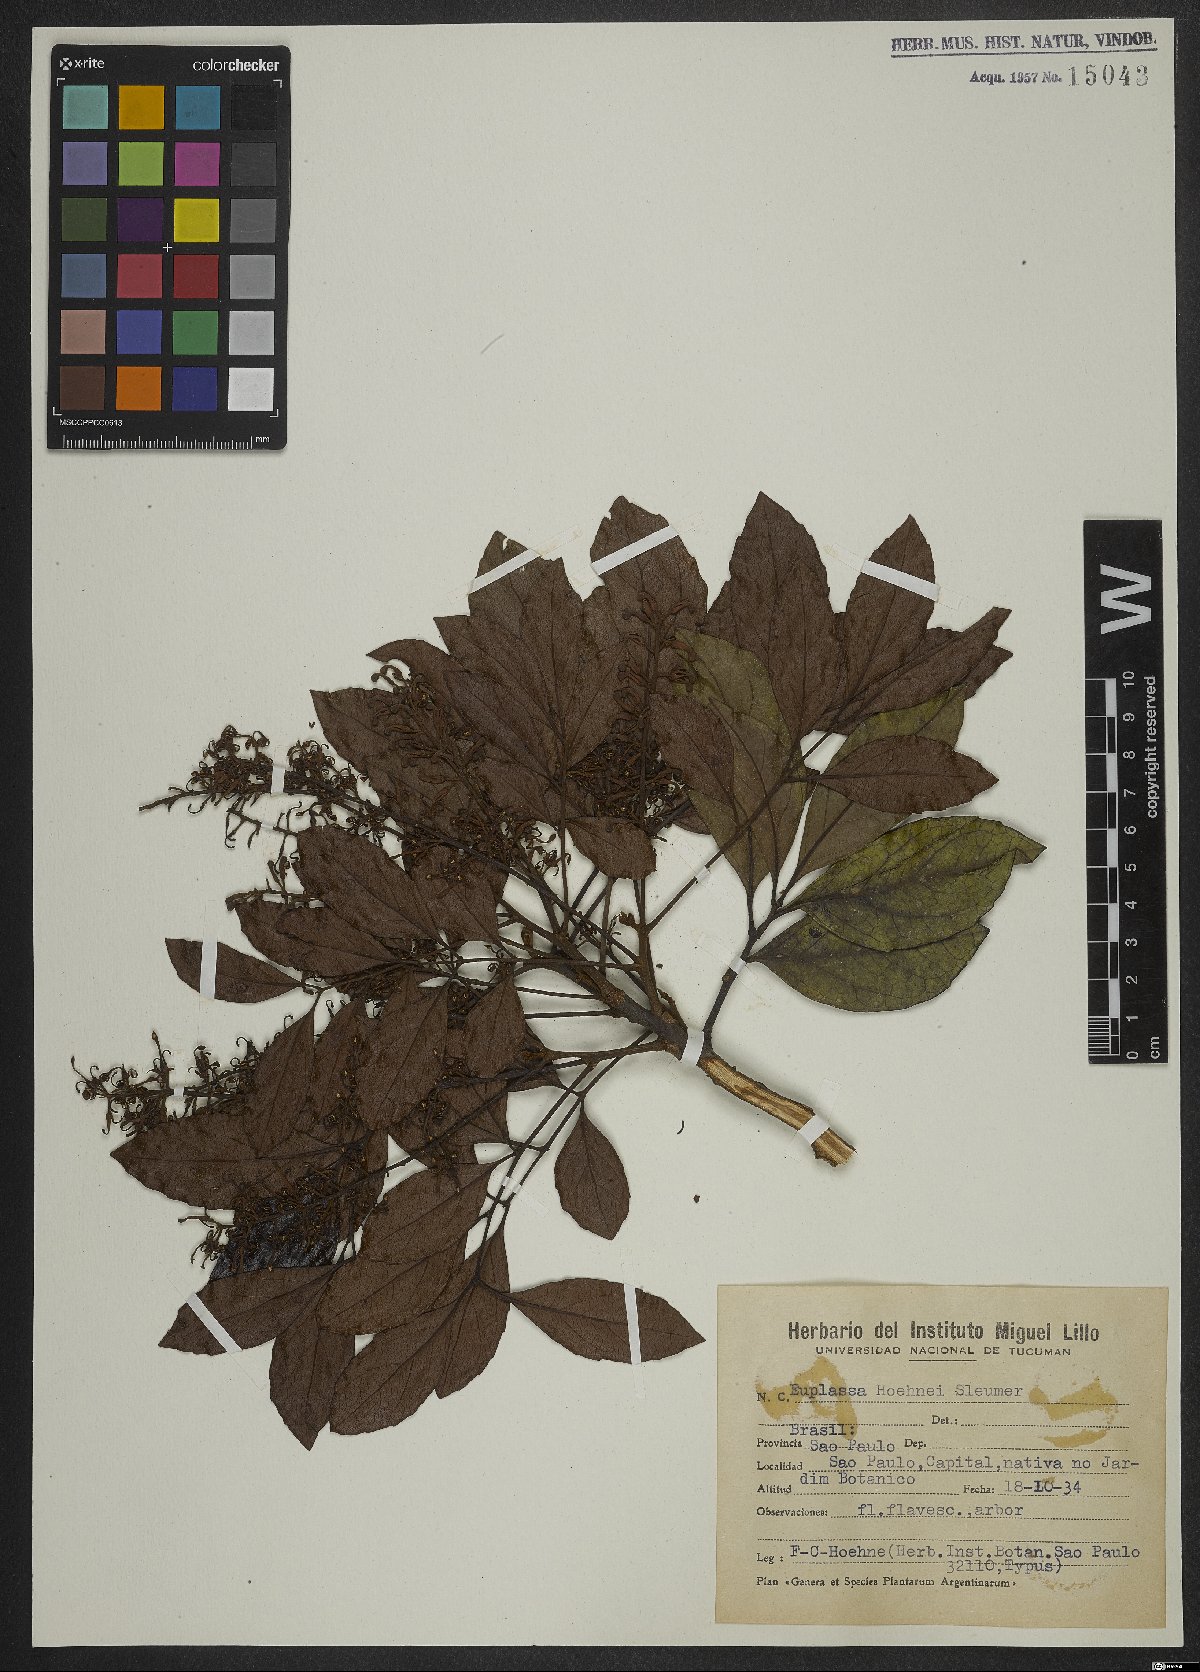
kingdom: Plantae
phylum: Tracheophyta
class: Magnoliopsida
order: Proteales
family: Proteaceae
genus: Euplassa
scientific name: Euplassa hoehnei
